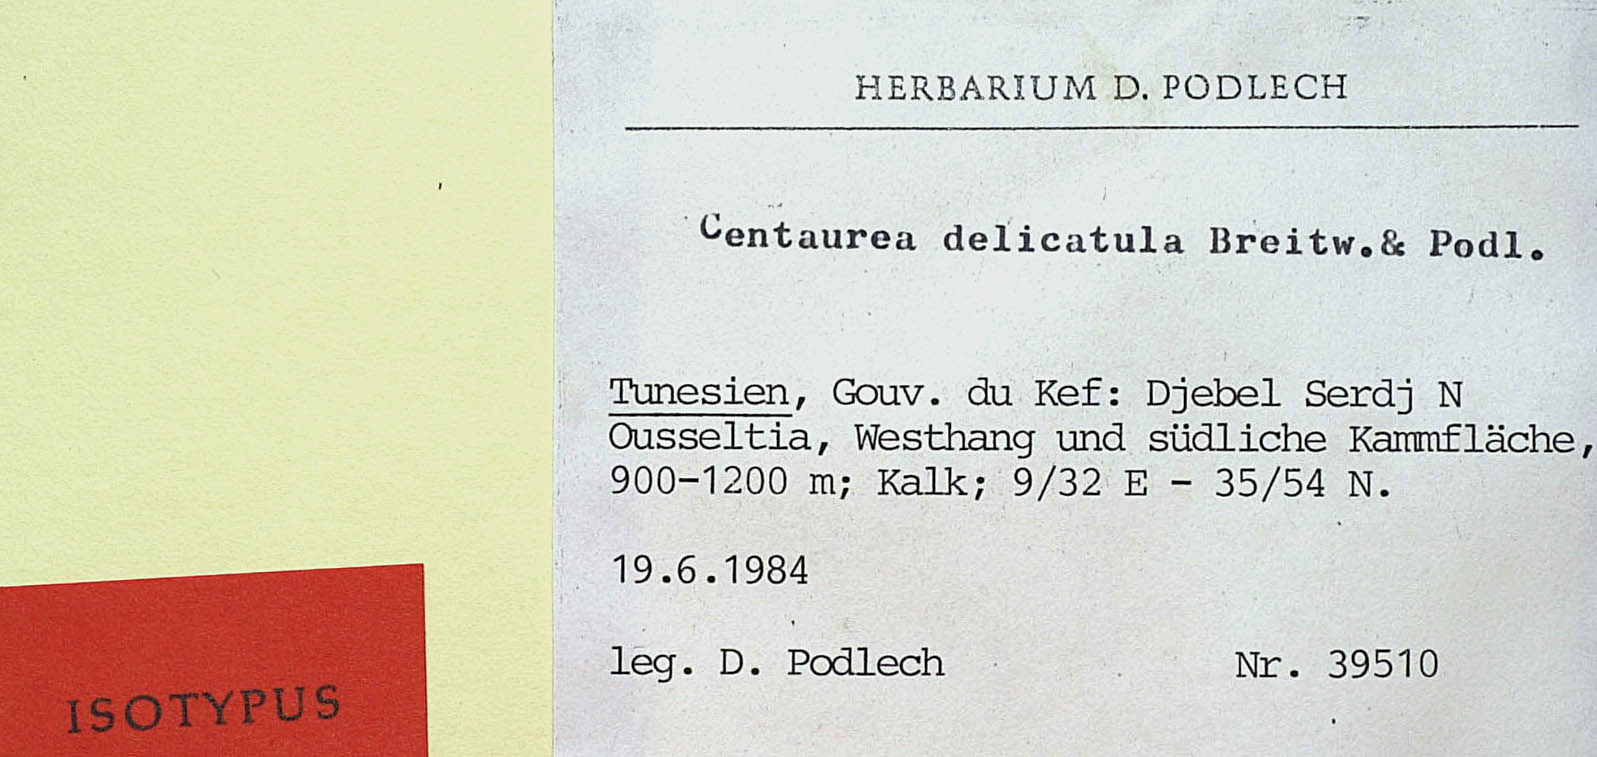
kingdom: Plantae
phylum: Tracheophyta
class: Magnoliopsida
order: Asterales
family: Asteraceae
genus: Centaurea
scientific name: Centaurea delicatula
